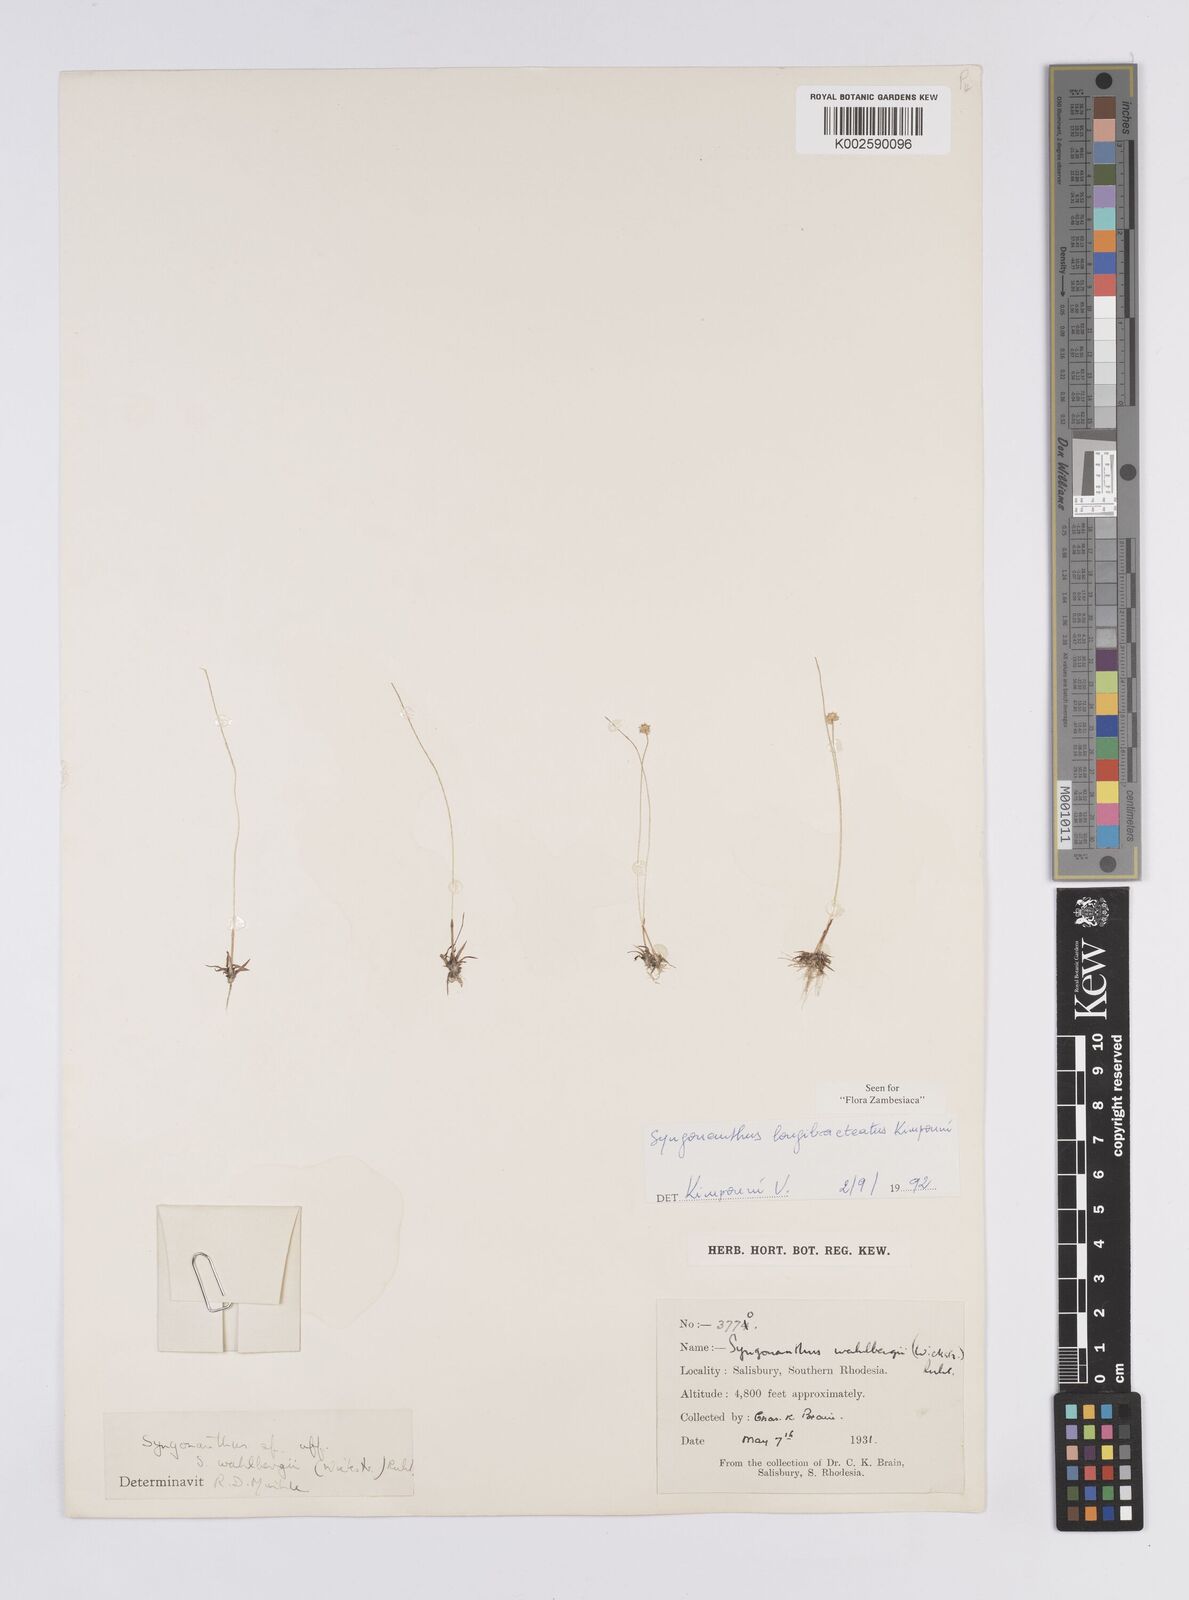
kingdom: Plantae
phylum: Tracheophyta
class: Liliopsida
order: Poales
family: Eriocaulaceae
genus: Syngonanthus
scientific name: Syngonanthus longibracteatus
